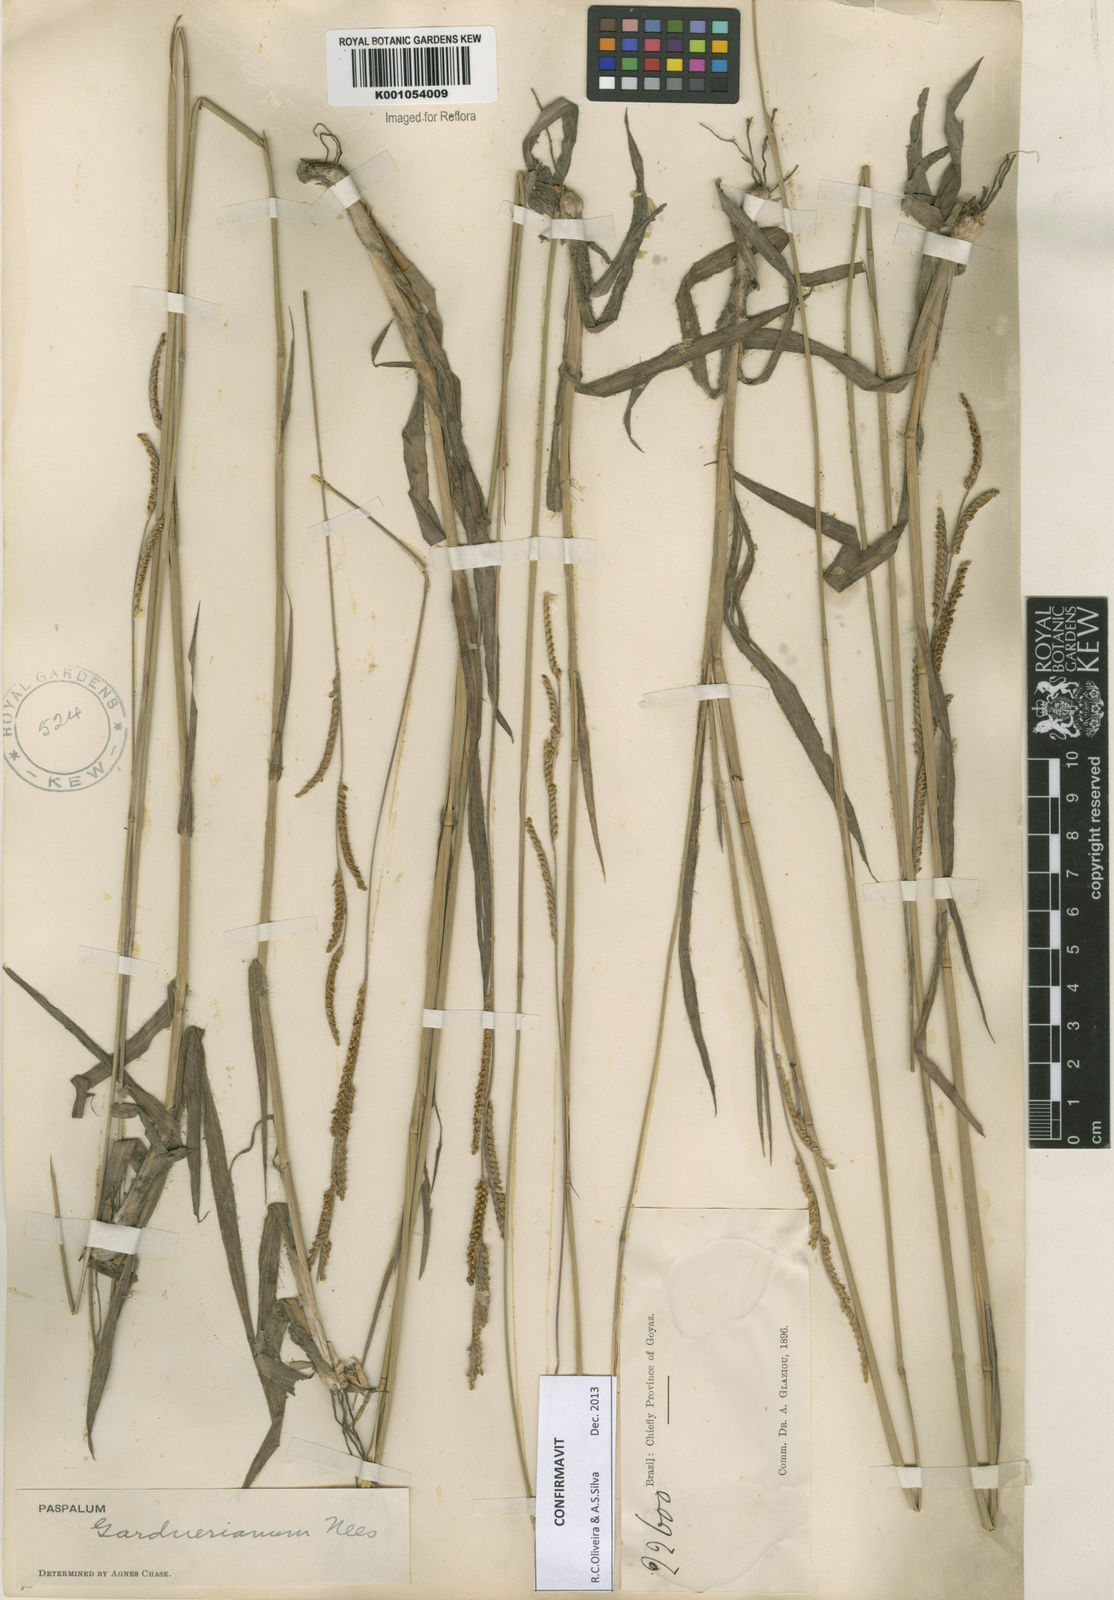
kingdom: Plantae
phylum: Tracheophyta
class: Liliopsida
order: Poales
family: Poaceae
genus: Paspalum
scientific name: Paspalum gardnerianum
